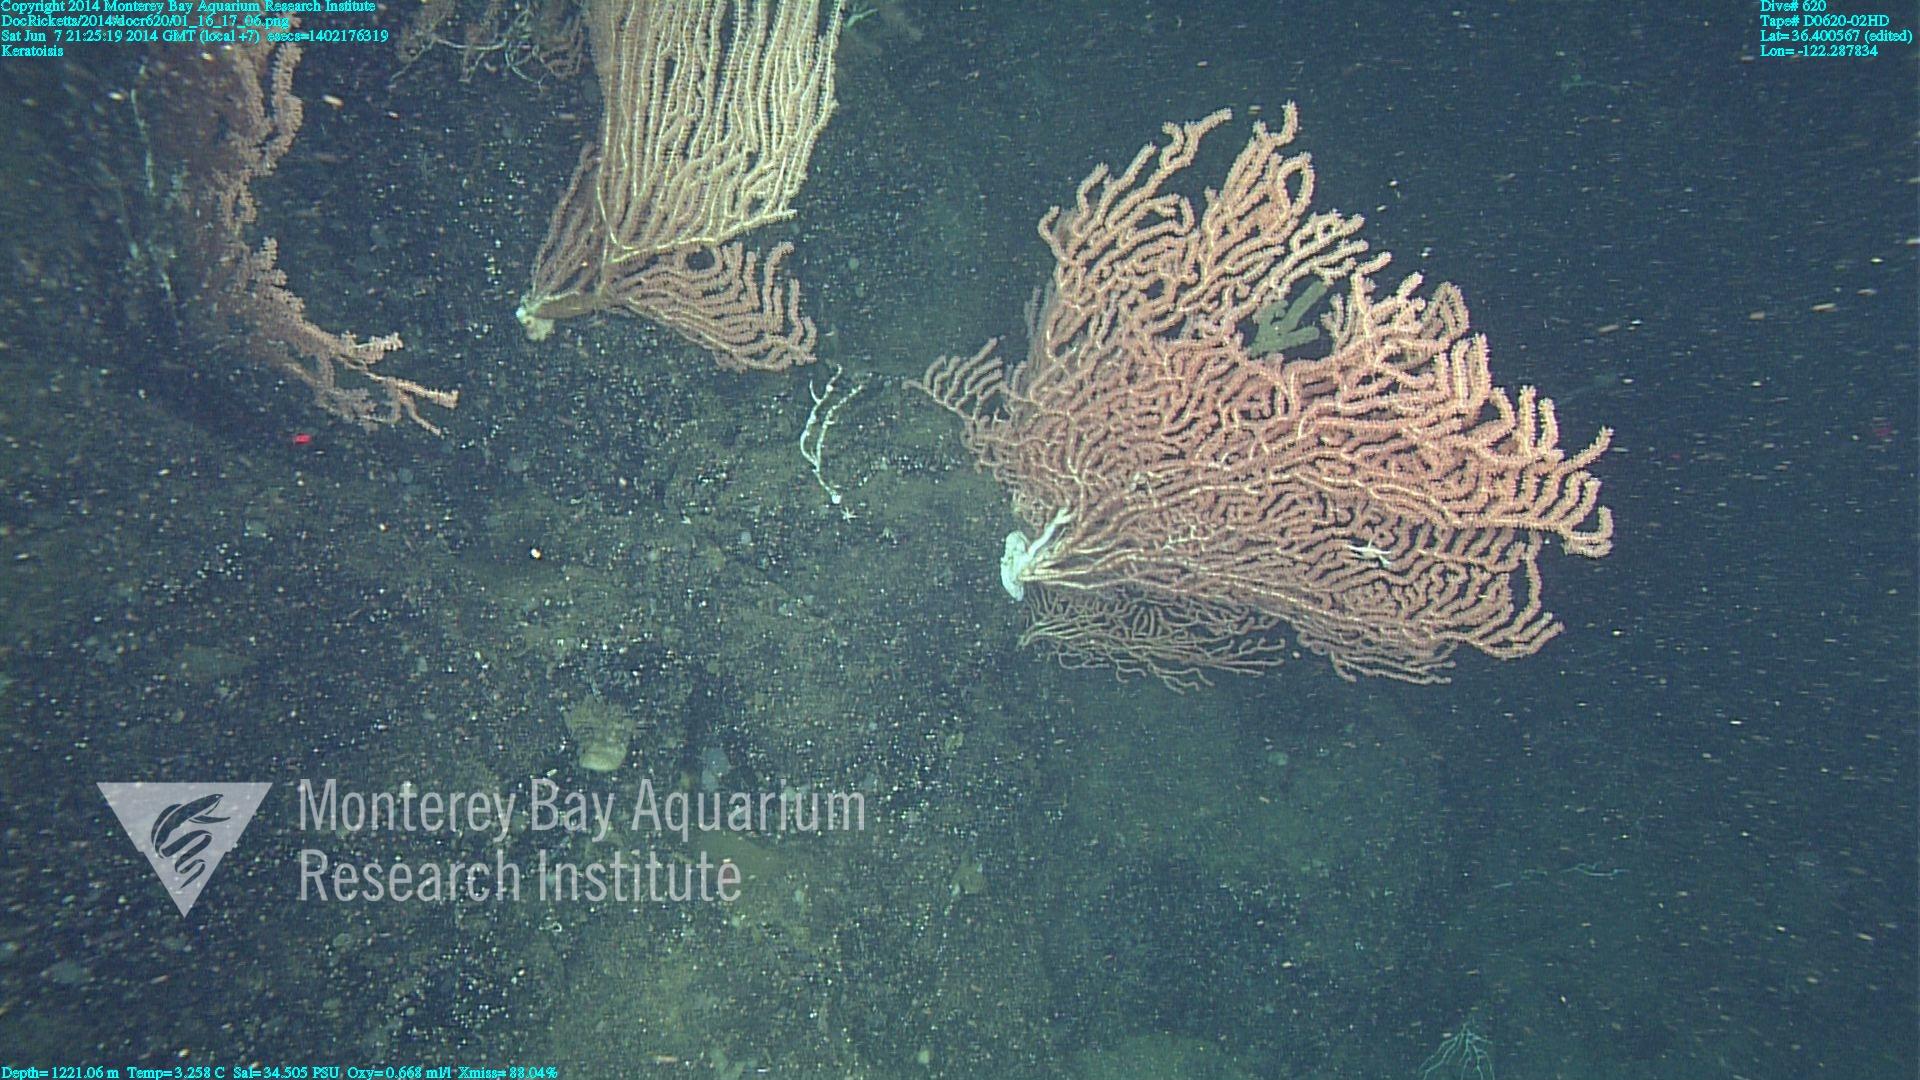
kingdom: Animalia
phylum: Cnidaria
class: Anthozoa
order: Scleralcyonacea
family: Keratoisididae
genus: Keratoisis
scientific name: Keratoisis
